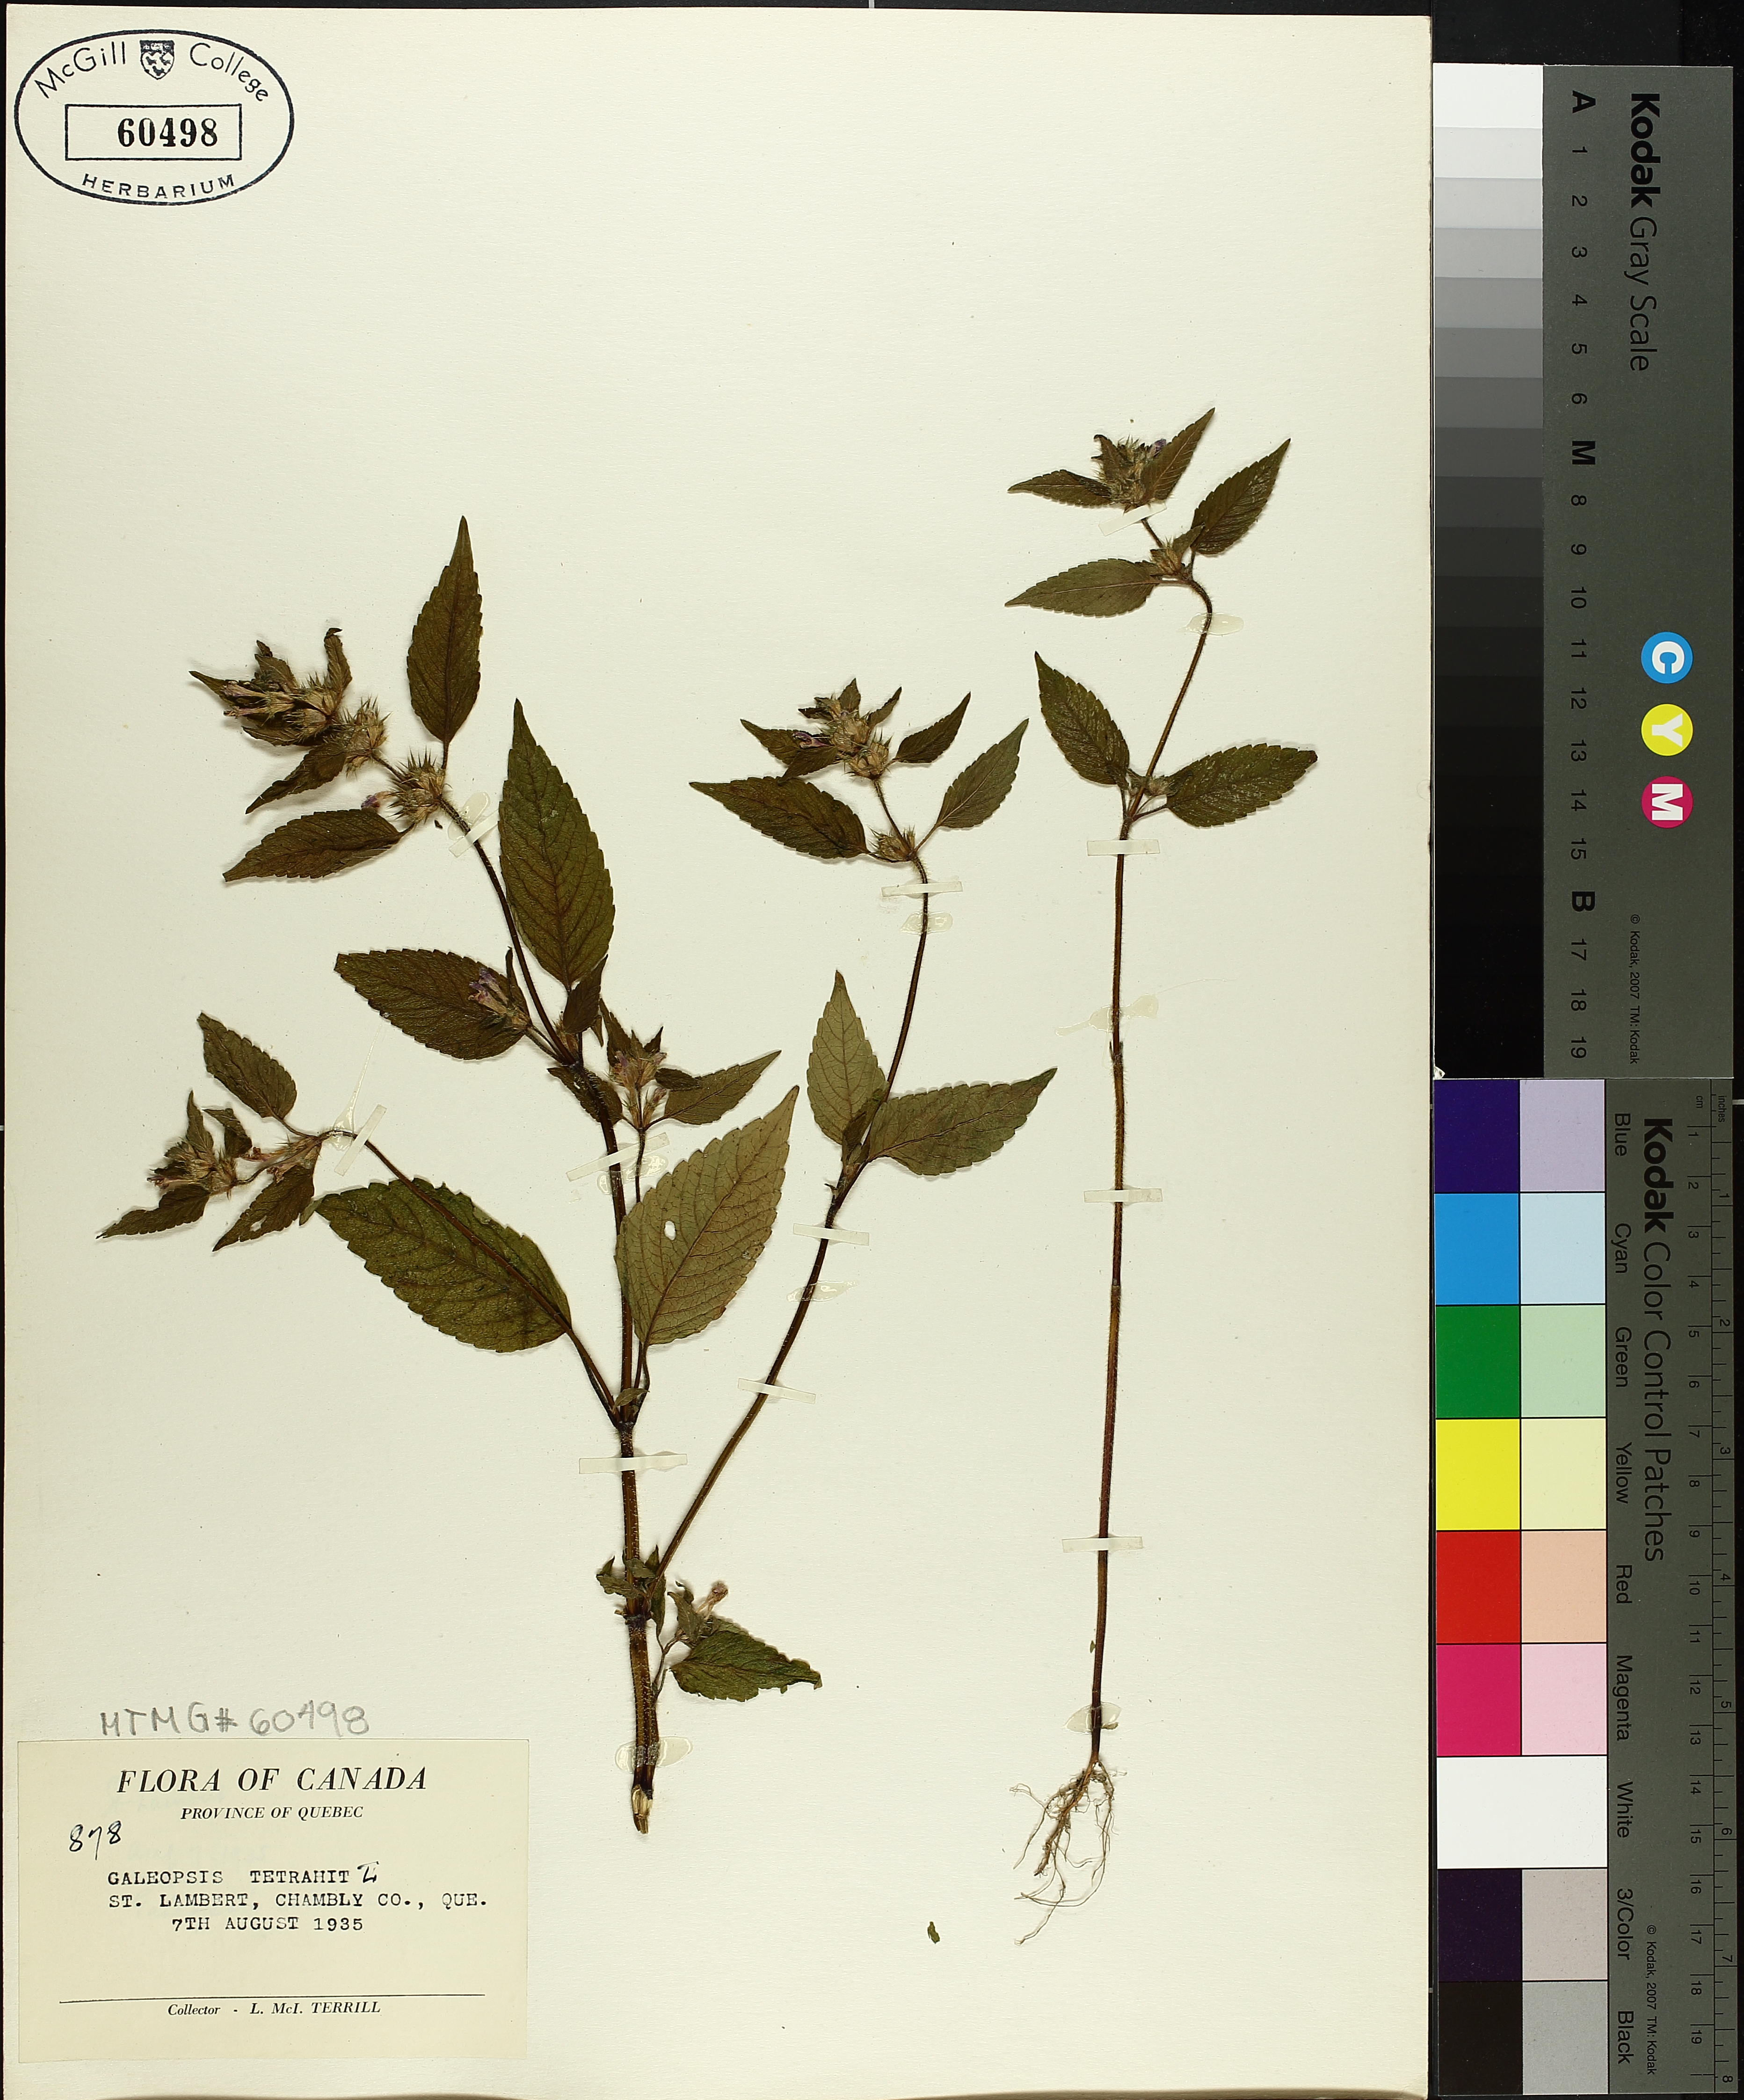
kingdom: Plantae
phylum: Tracheophyta
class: Magnoliopsida
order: Lamiales
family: Lamiaceae
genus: Galeopsis
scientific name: Galeopsis tetrahit
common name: Common hemp-nettle
